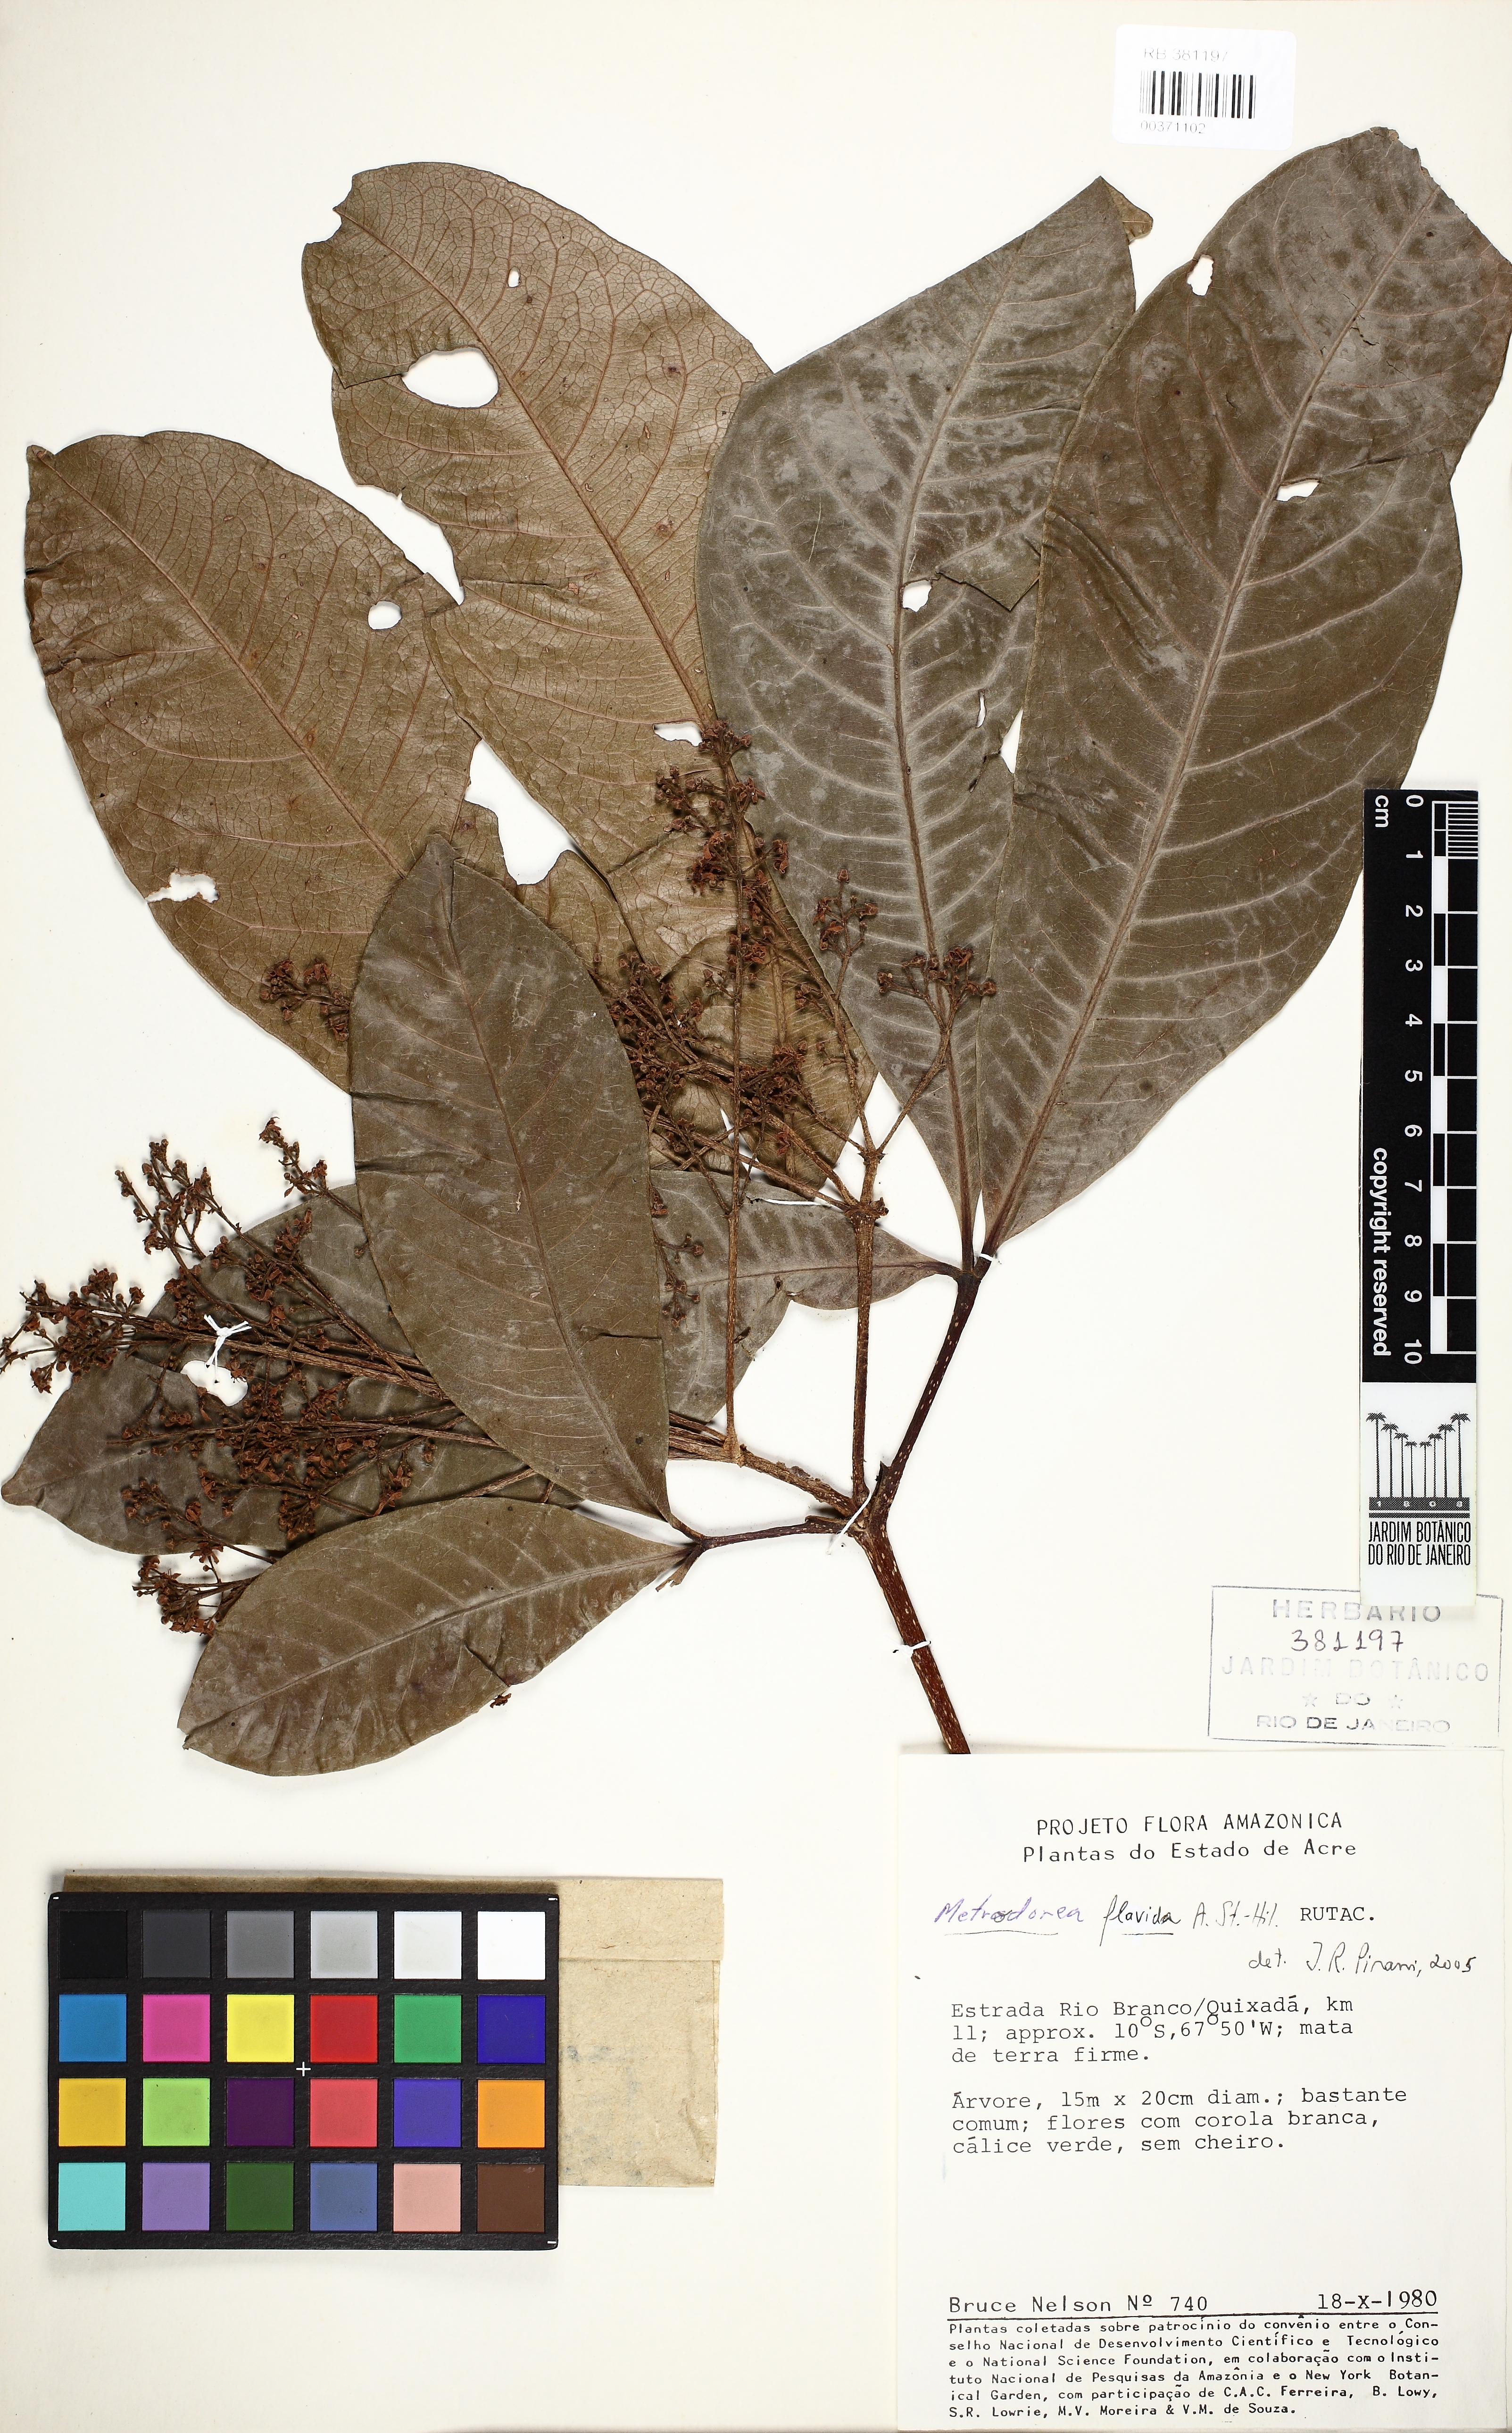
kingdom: Plantae
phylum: Tracheophyta
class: Magnoliopsida
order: Sapindales
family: Rutaceae
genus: Metrodorea
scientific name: Metrodorea flavida
